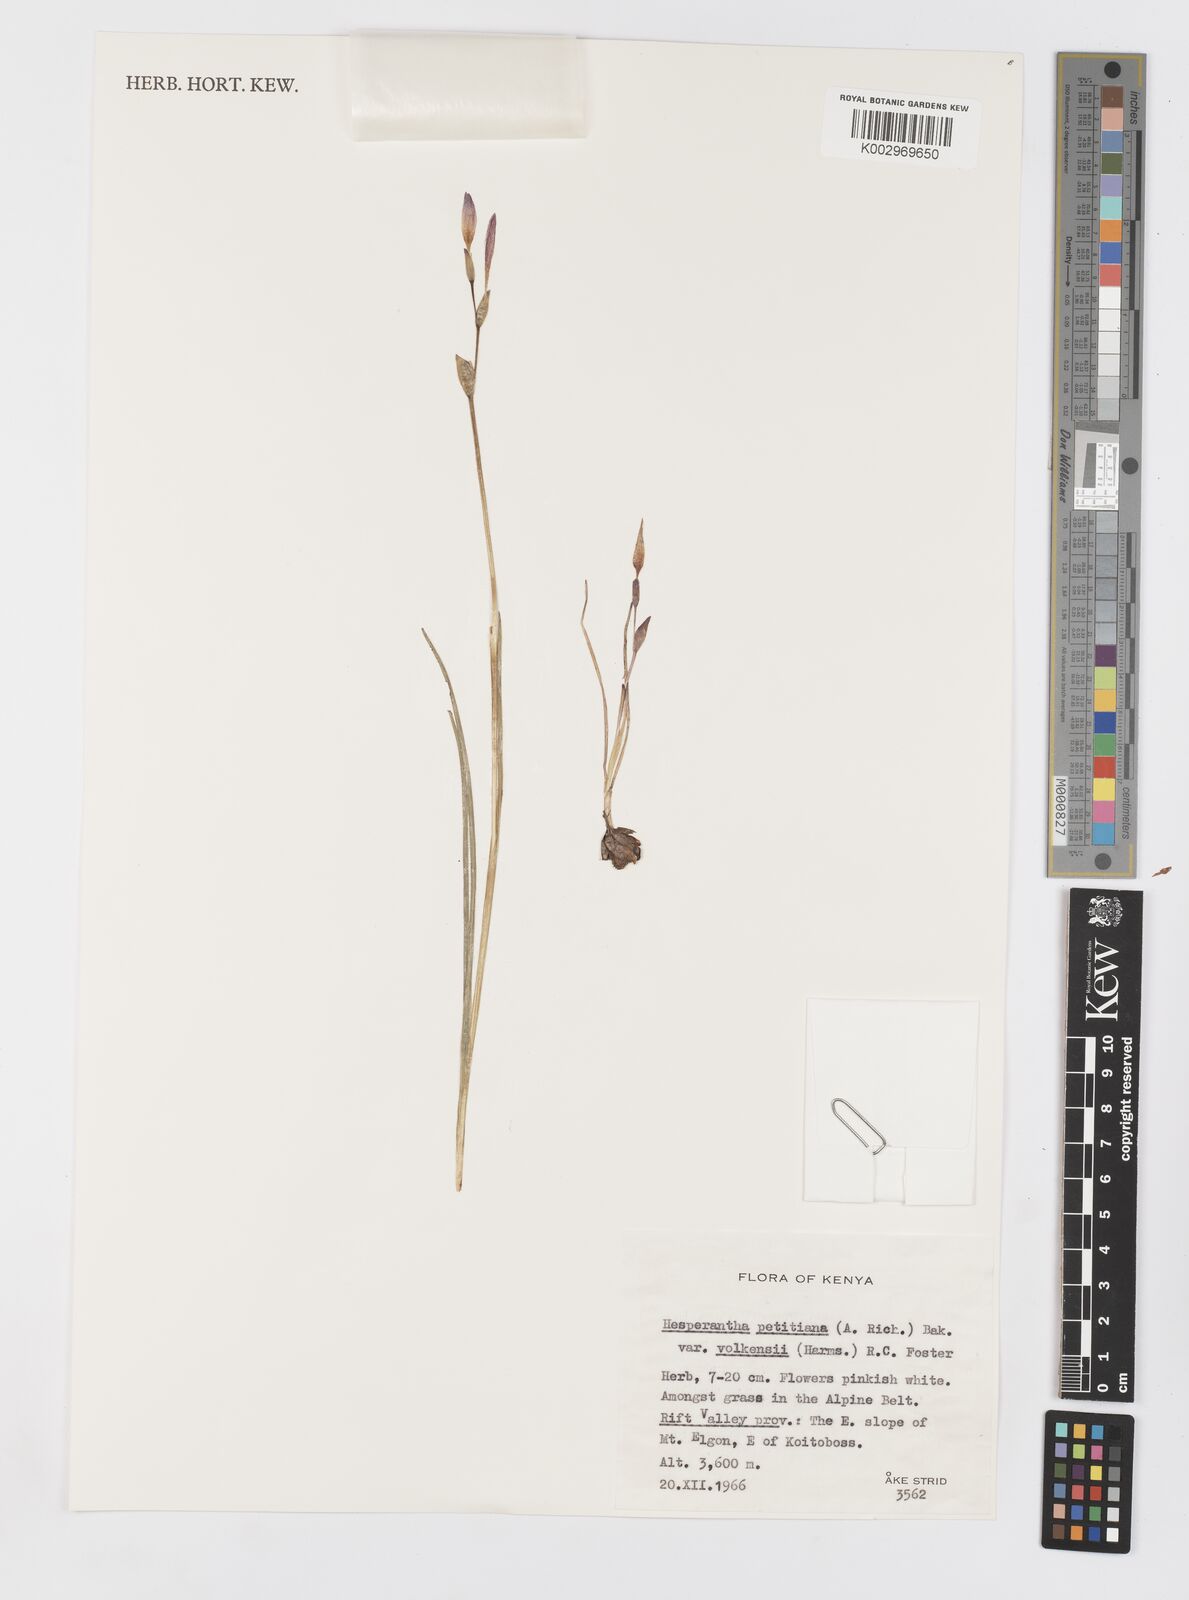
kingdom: Plantae
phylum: Tracheophyta
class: Liliopsida
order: Asparagales
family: Iridaceae
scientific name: Iridaceae
